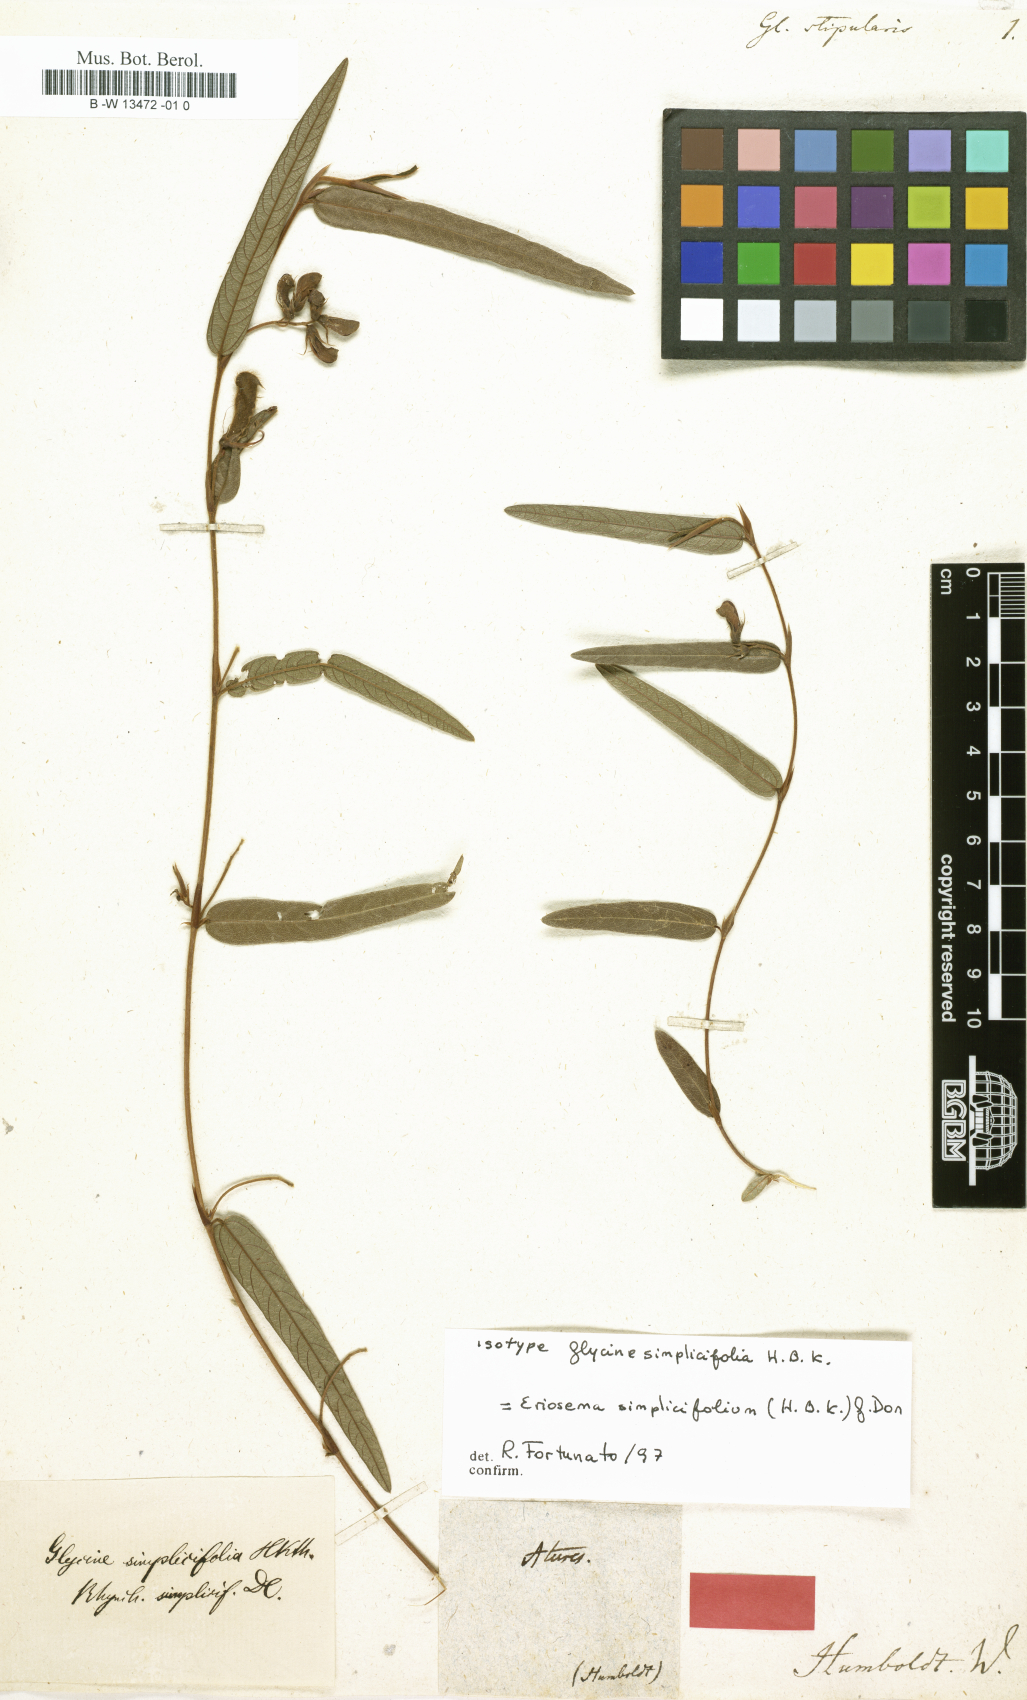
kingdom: Plantae
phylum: Tracheophyta
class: Magnoliopsida
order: Fabales
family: Fabaceae
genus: Glycine
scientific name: Glycine
